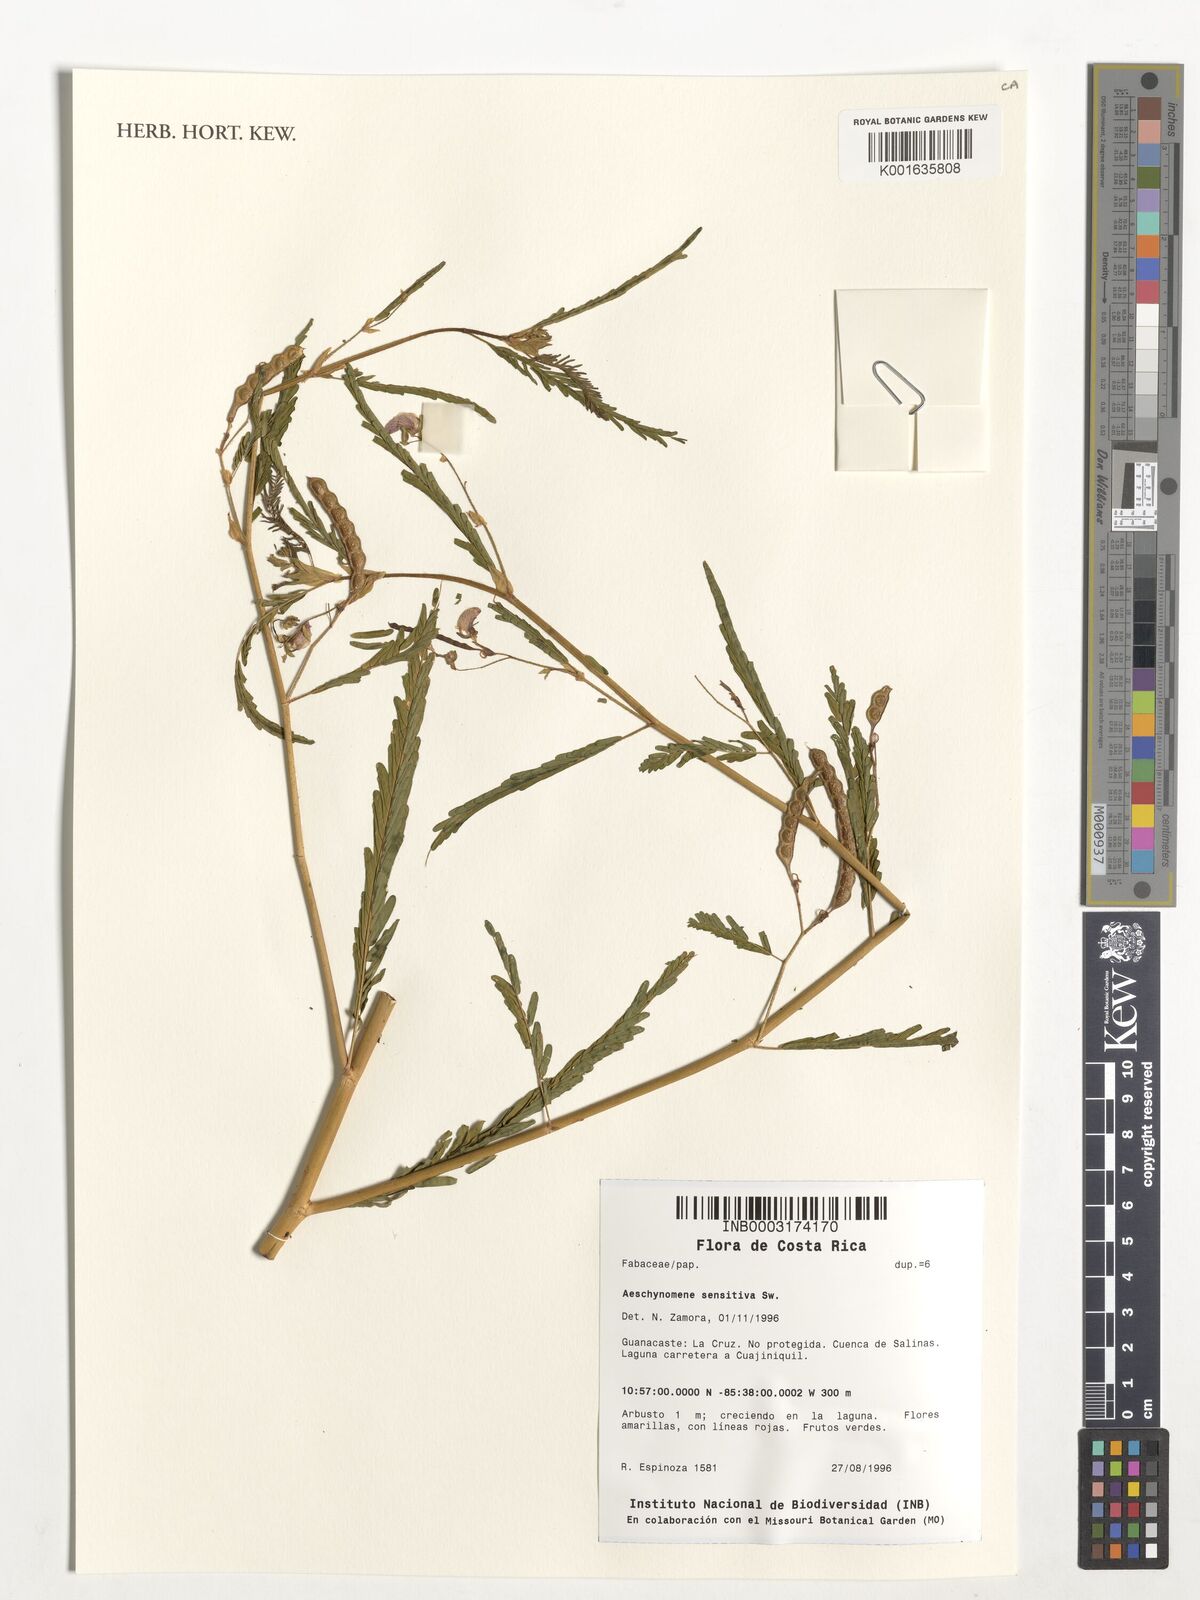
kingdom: Plantae
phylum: Tracheophyta
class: Magnoliopsida
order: Fabales
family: Fabaceae
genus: Aeschynomene
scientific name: Aeschynomene sensitiva
